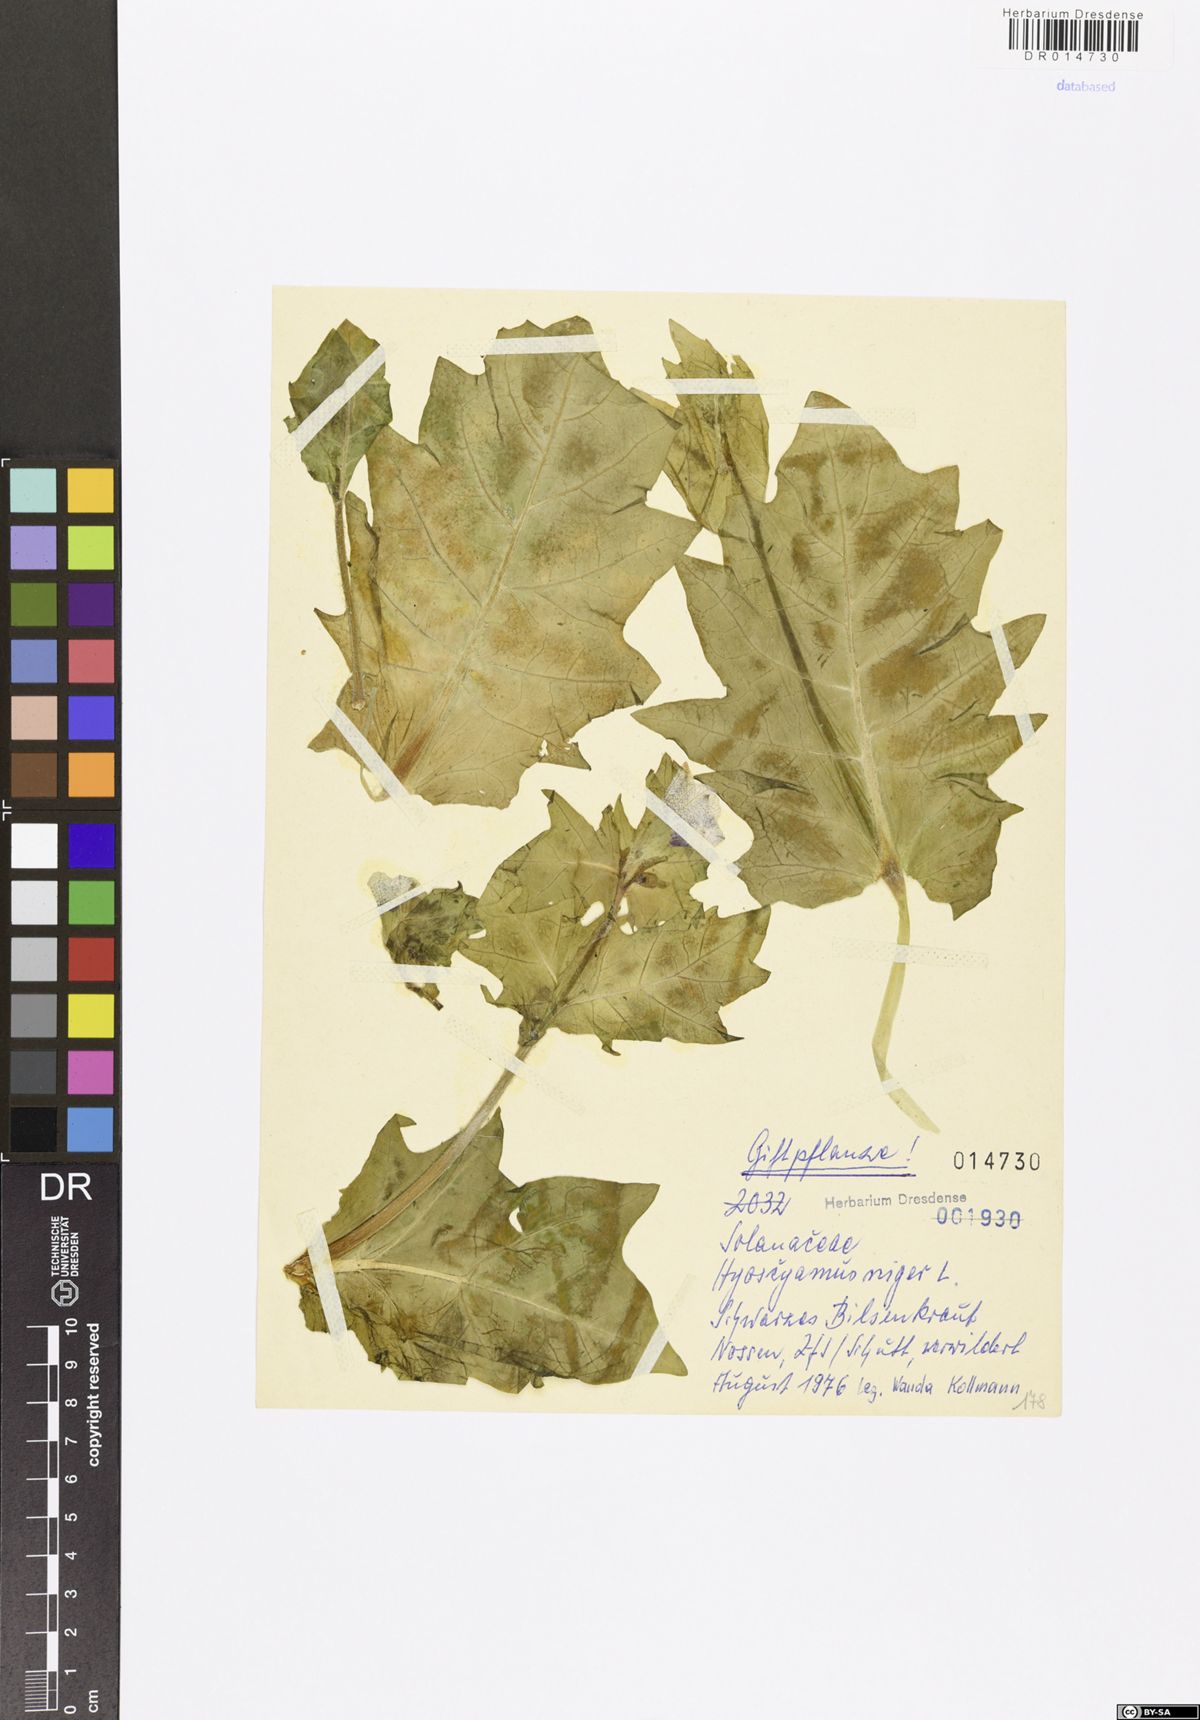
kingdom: Plantae
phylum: Tracheophyta
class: Magnoliopsida
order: Solanales
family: Solanaceae
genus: Hyoscyamus
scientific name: Hyoscyamus niger
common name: Henbane
